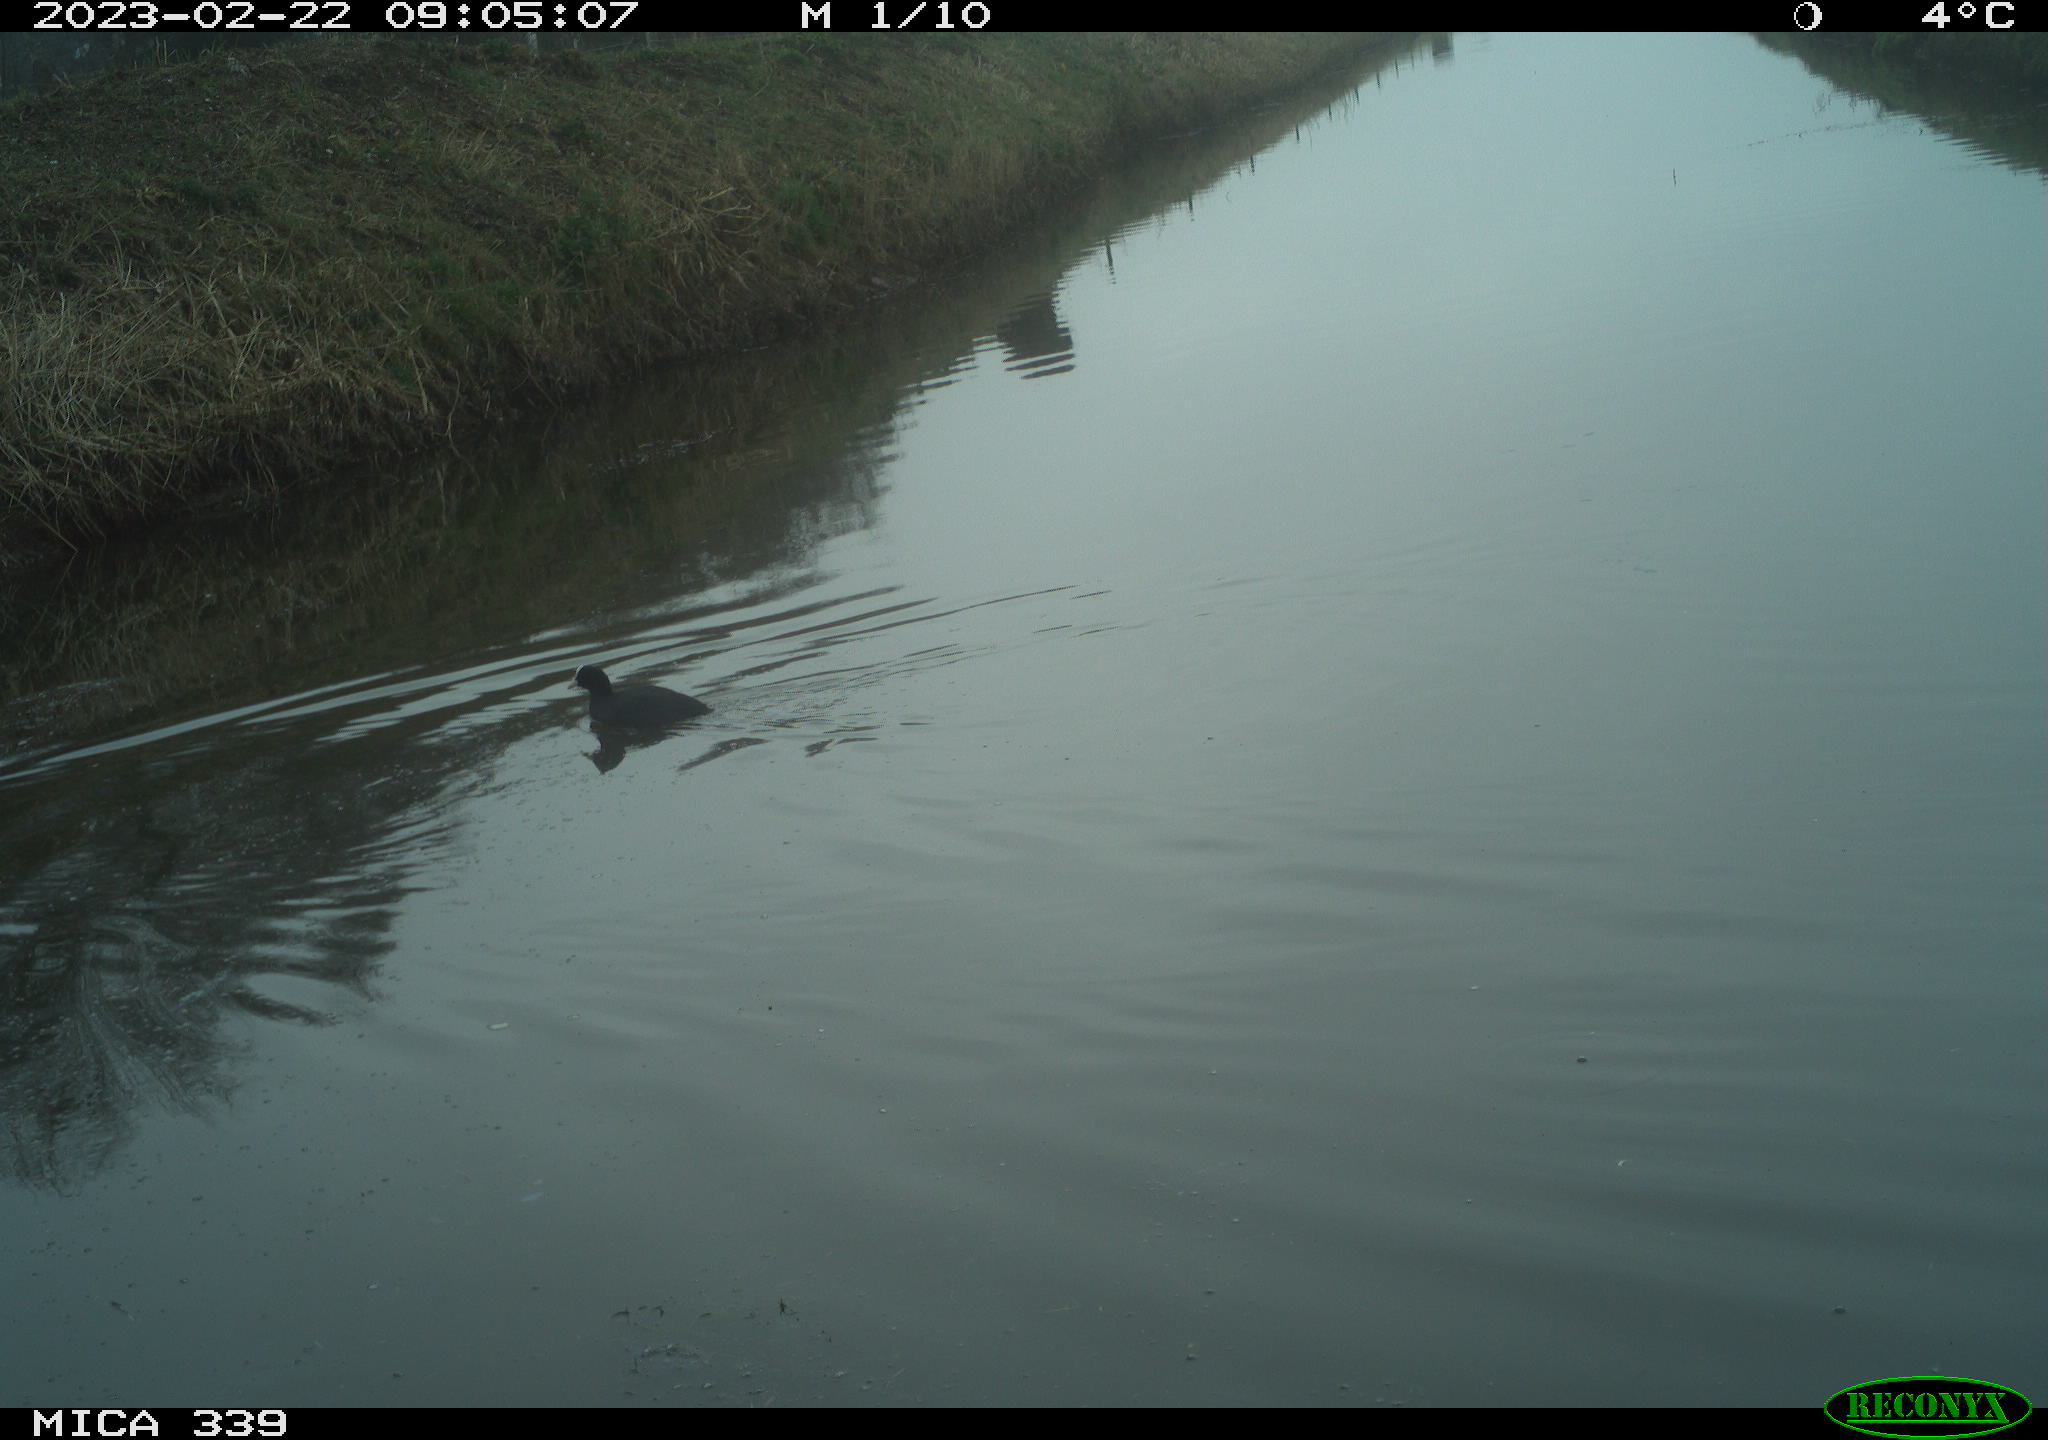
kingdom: Animalia
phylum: Chordata
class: Aves
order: Gruiformes
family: Rallidae
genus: Fulica
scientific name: Fulica atra
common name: Eurasian coot
